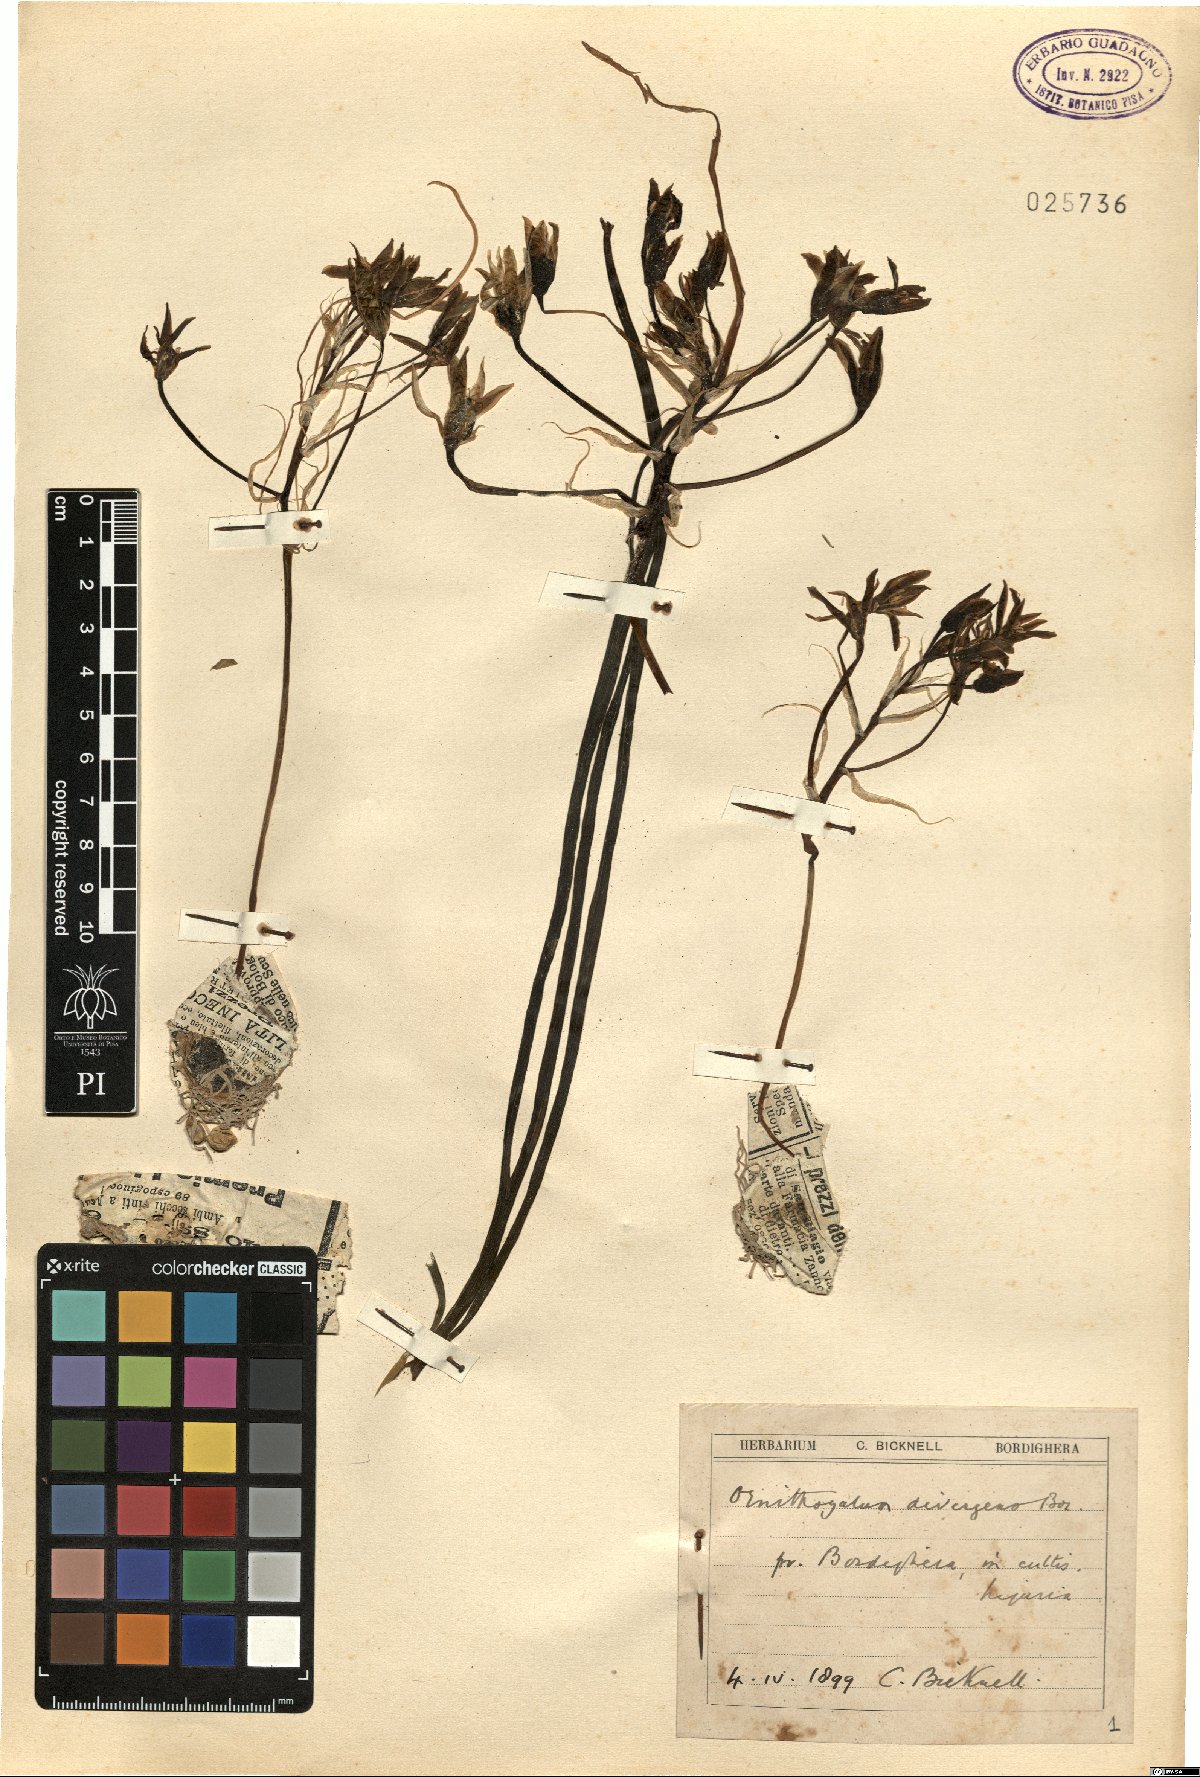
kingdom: Plantae
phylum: Tracheophyta
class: Liliopsida
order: Asparagales
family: Asparagaceae
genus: Ornithogalum
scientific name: Ornithogalum divergens
